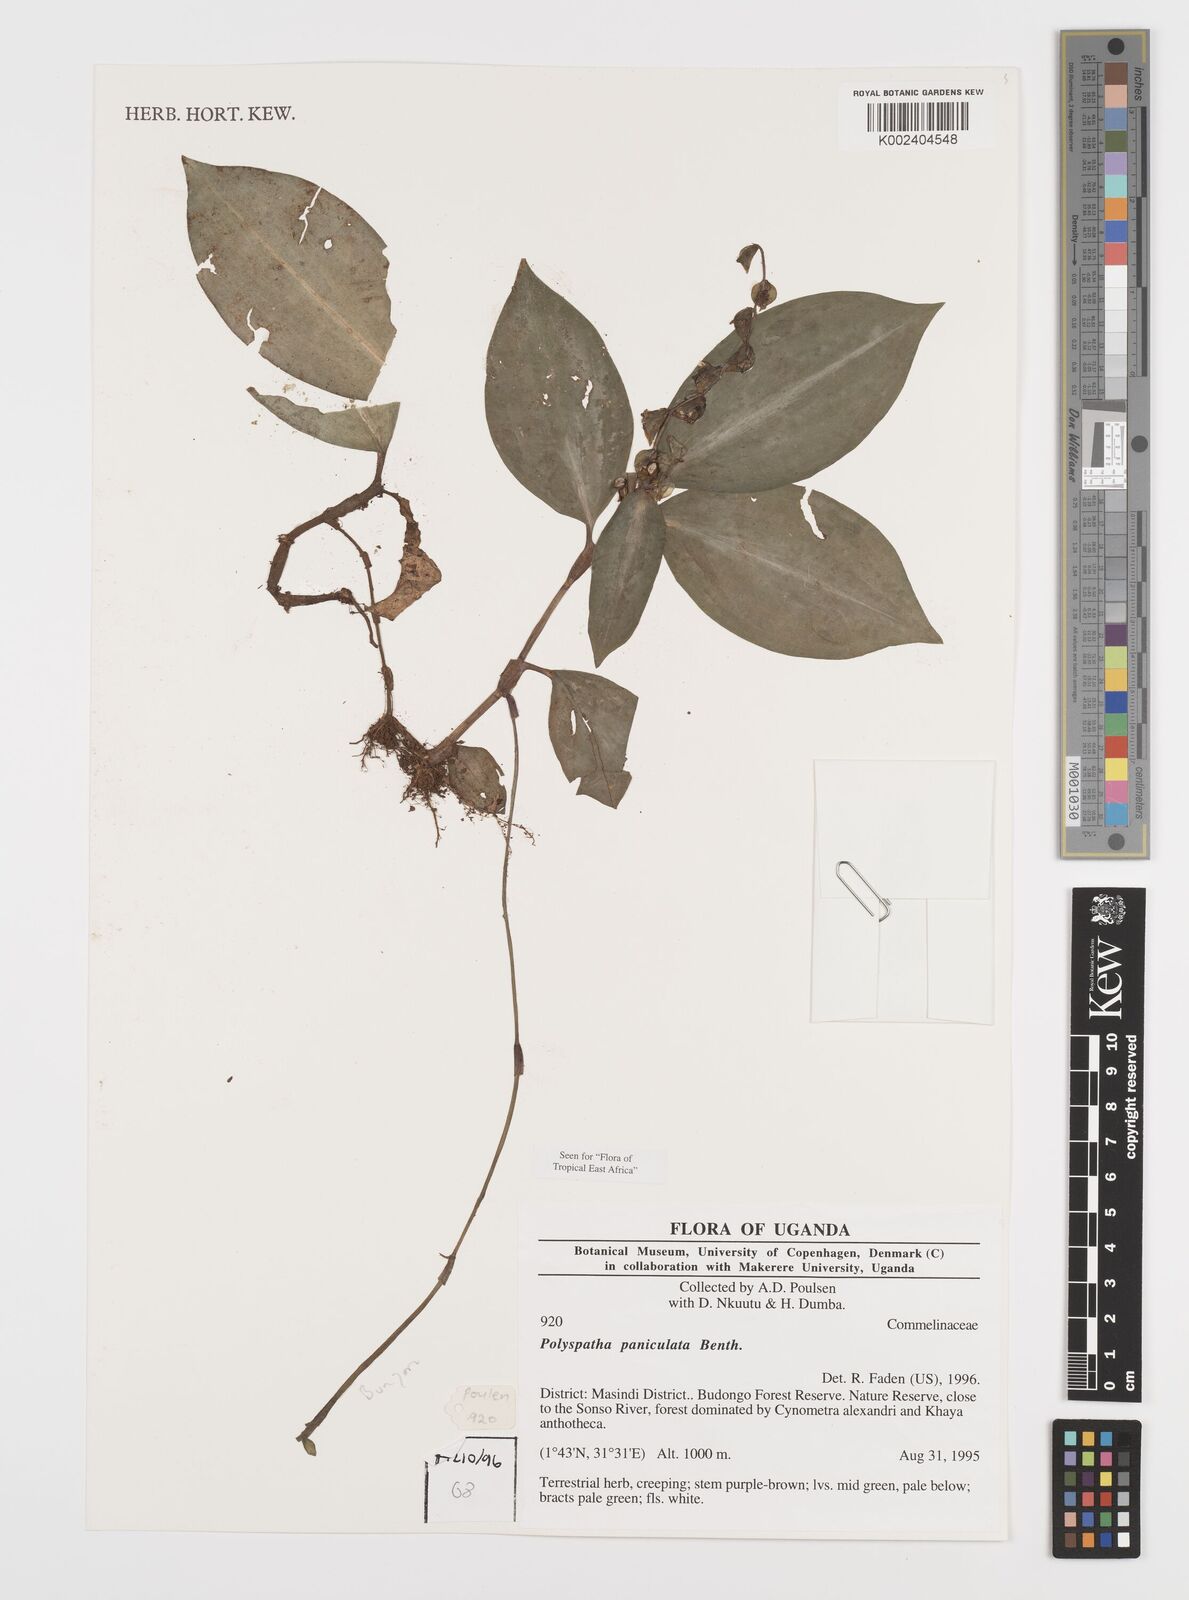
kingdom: Plantae
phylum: Tracheophyta
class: Liliopsida
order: Commelinales
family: Commelinaceae
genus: Polyspatha
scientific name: Polyspatha paniculata
